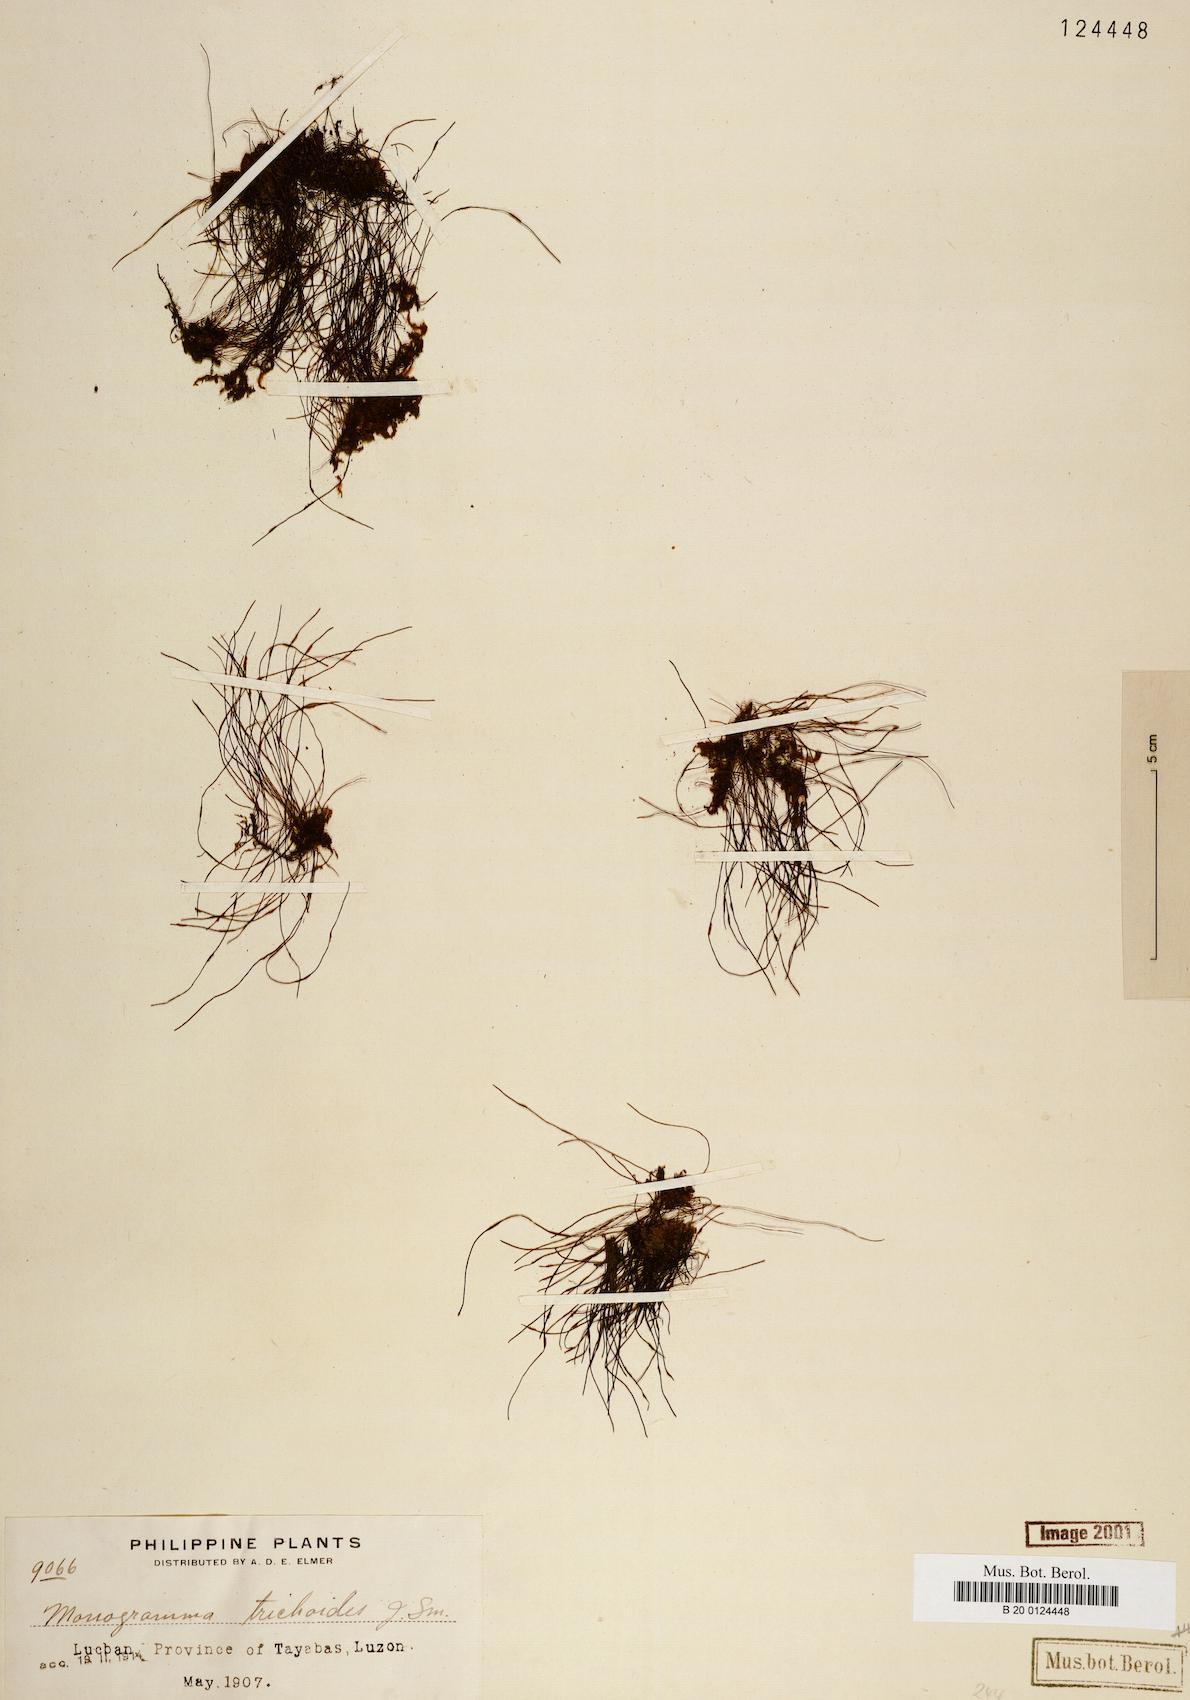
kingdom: Plantae
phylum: Tracheophyta
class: Polypodiopsida
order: Polypodiales
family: Pteridaceae
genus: Vaginularia
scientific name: Vaginularia trichoidea
